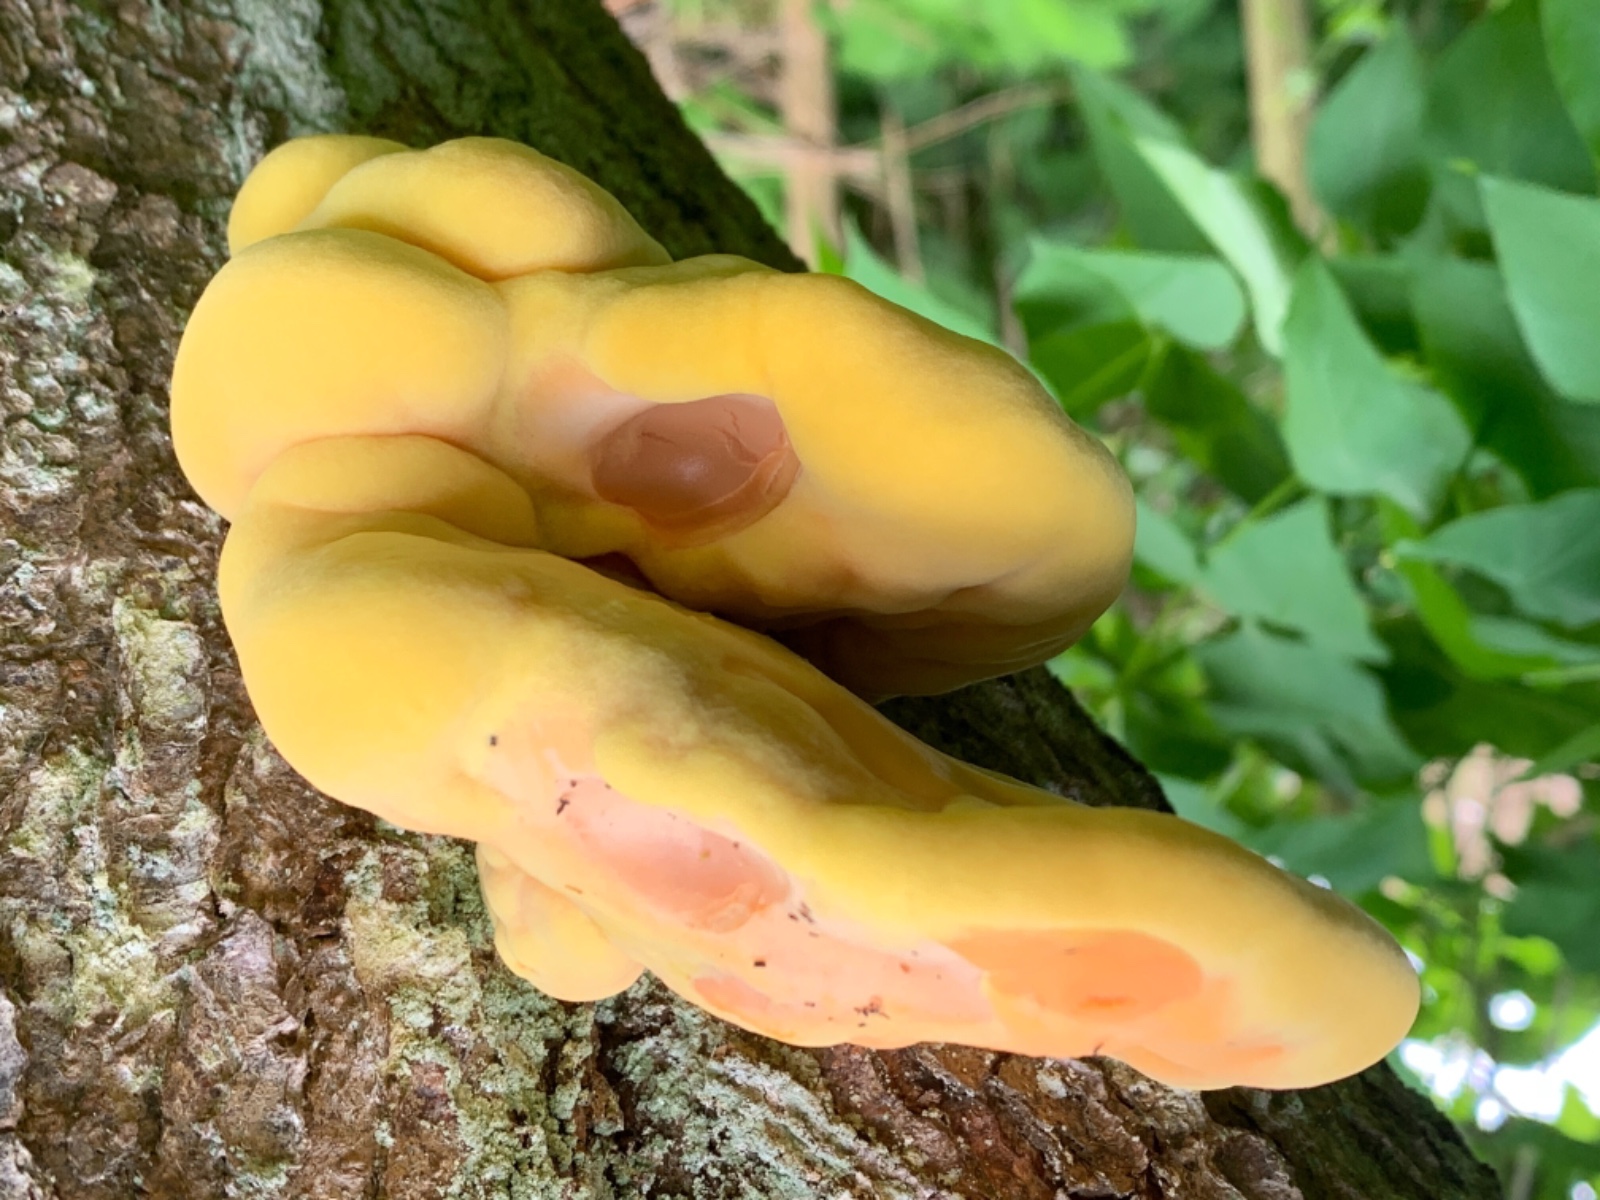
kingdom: Fungi
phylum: Basidiomycota
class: Agaricomycetes
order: Polyporales
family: Laetiporaceae
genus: Laetiporus
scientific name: Laetiporus sulphureus
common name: svovlporesvamp
